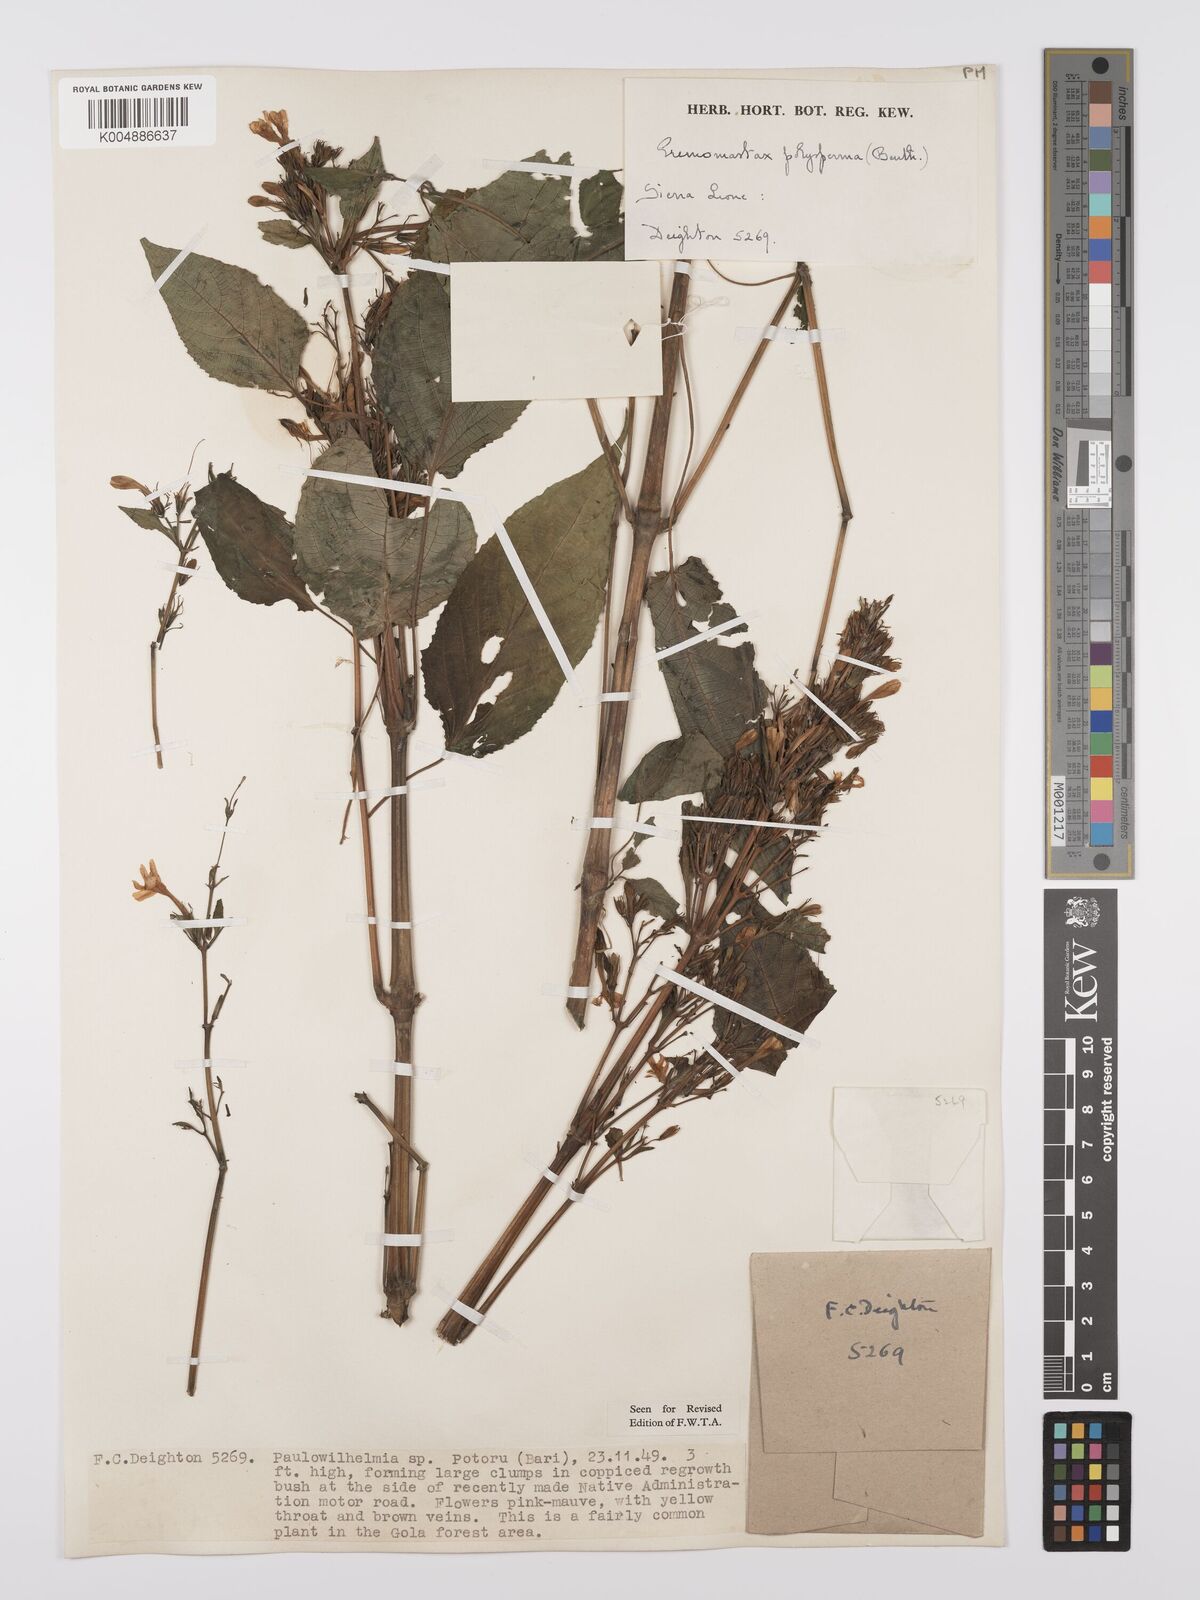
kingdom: Plantae
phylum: Tracheophyta
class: Magnoliopsida
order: Lamiales
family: Acanthaceae
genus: Eremomastax
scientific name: Eremomastax speciosa
